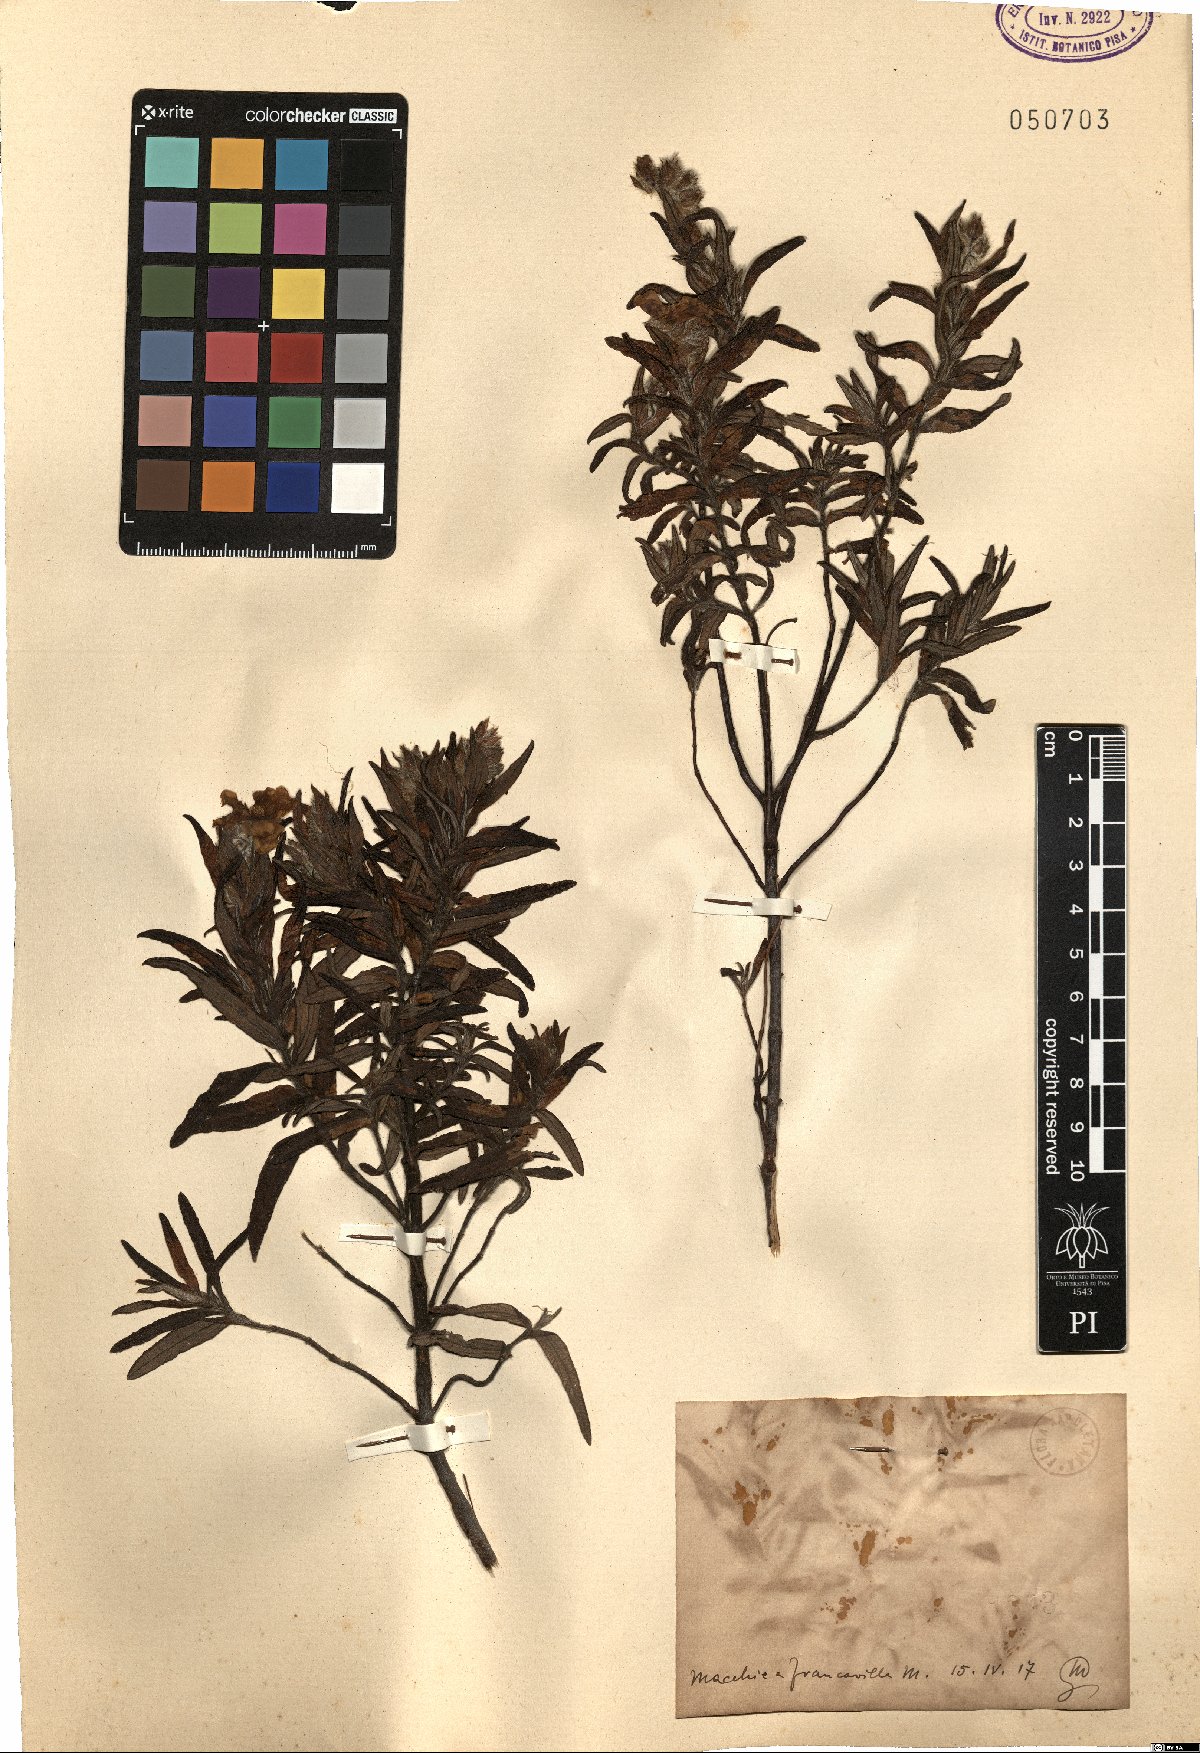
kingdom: Plantae
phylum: Tracheophyta
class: Magnoliopsida
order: Malvales
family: Cistaceae
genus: Cistus
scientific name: Cistus
